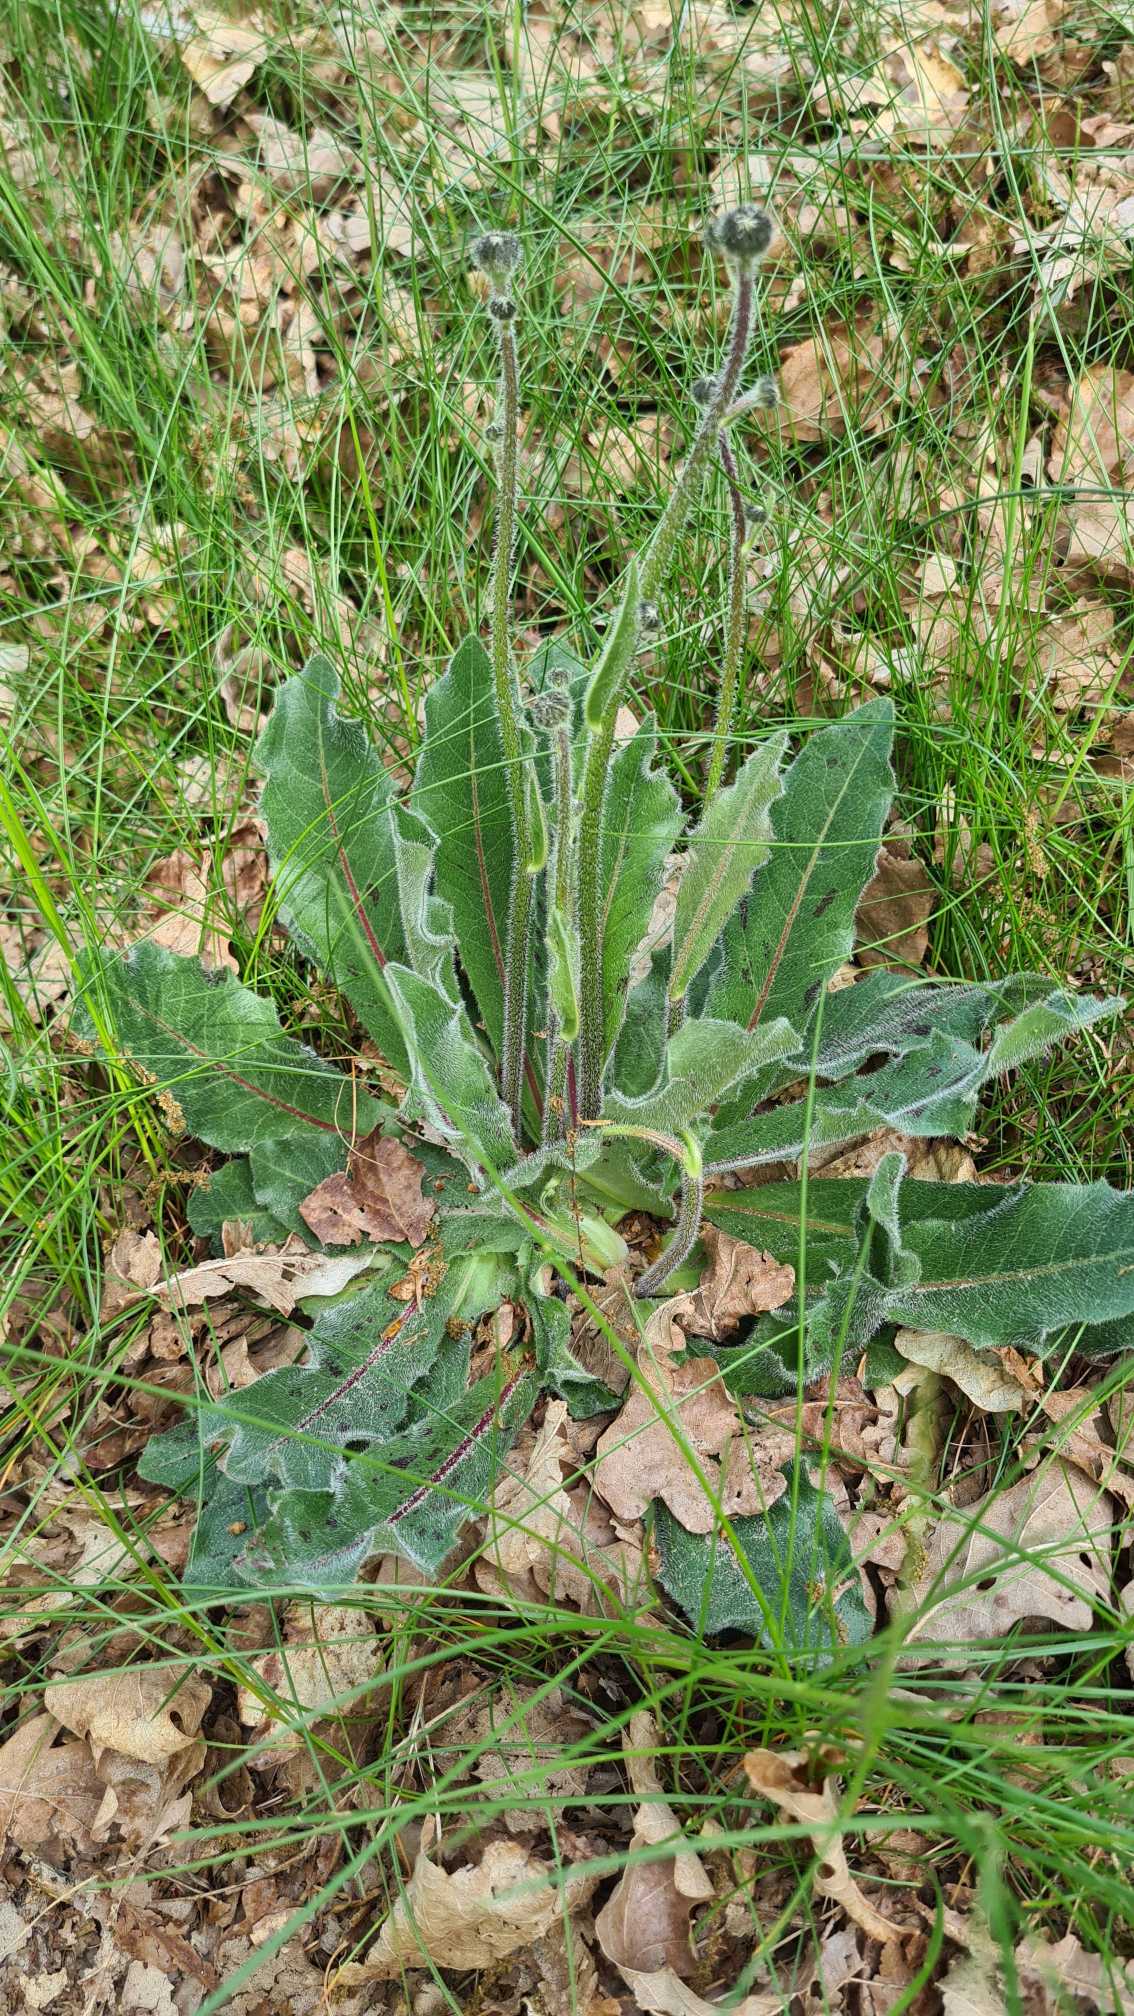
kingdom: Plantae
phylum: Tracheophyta
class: Magnoliopsida
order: Asterales
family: Asteraceae
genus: Trommsdorffia
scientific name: Trommsdorffia maculata
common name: Plettet kongepen
